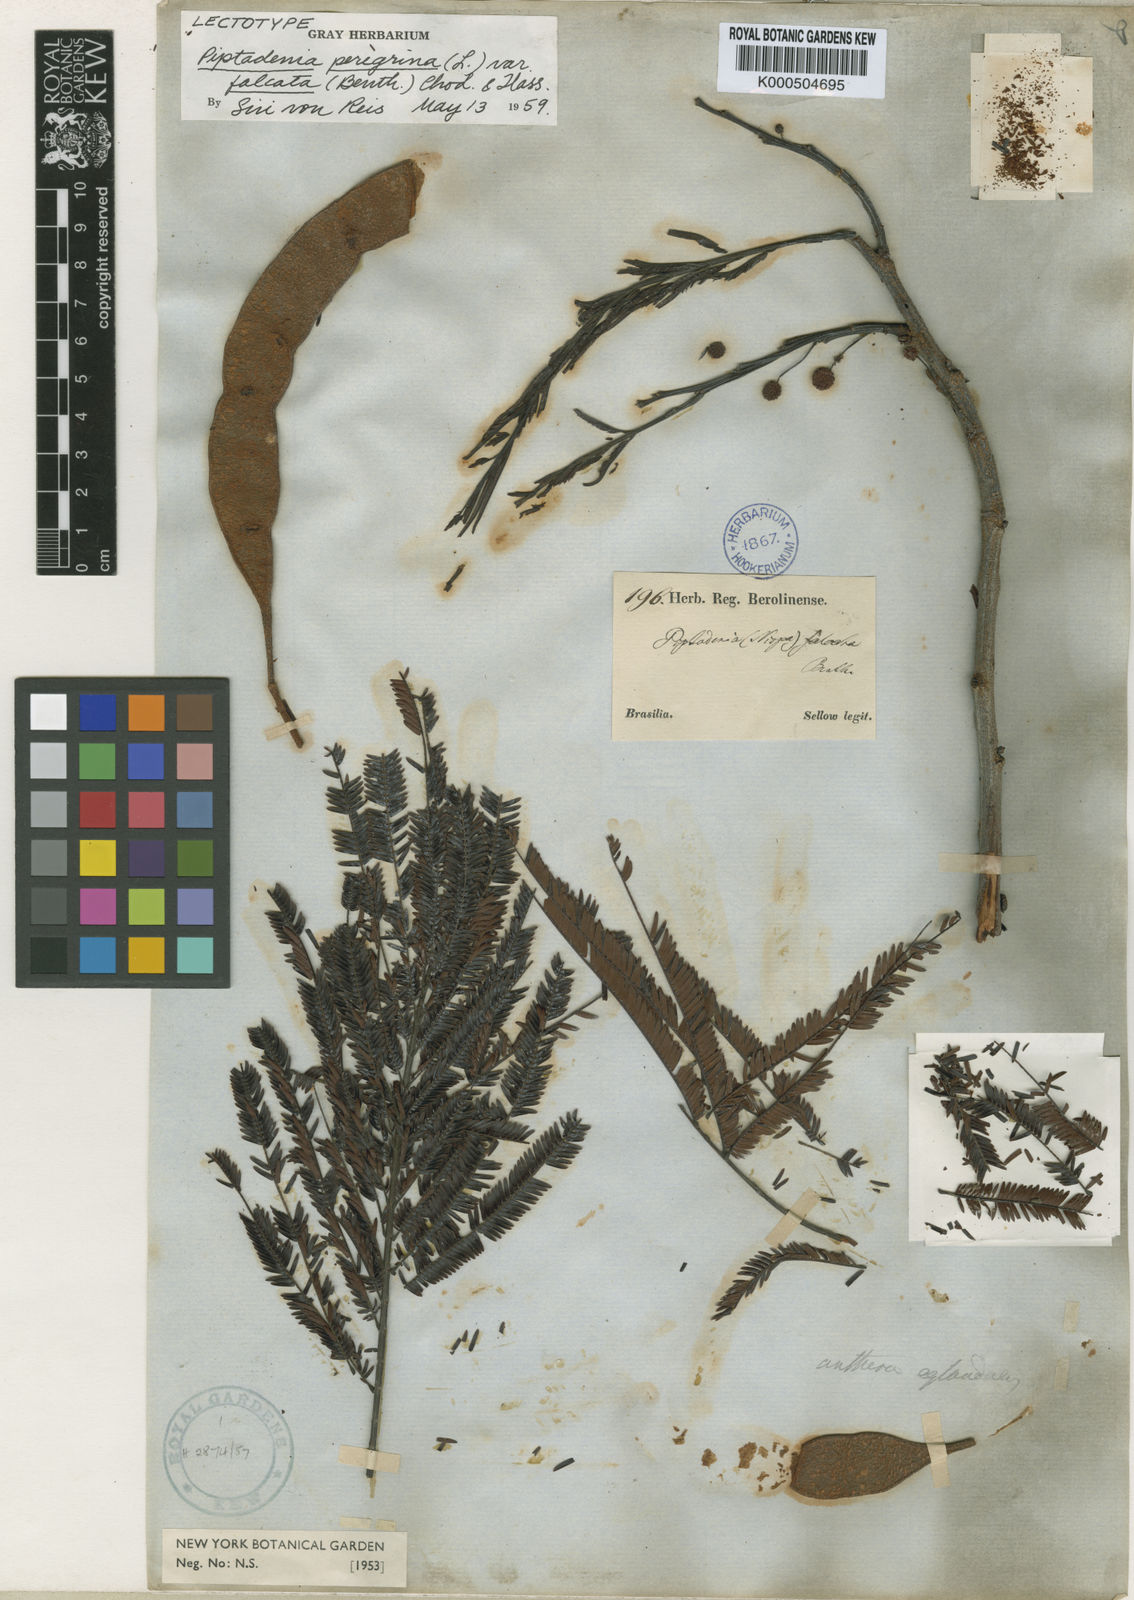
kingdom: Plantae
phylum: Tracheophyta
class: Magnoliopsida
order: Fabales
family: Fabaceae
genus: Anadenanthera
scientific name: Anadenanthera peregrina
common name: Cohoba
